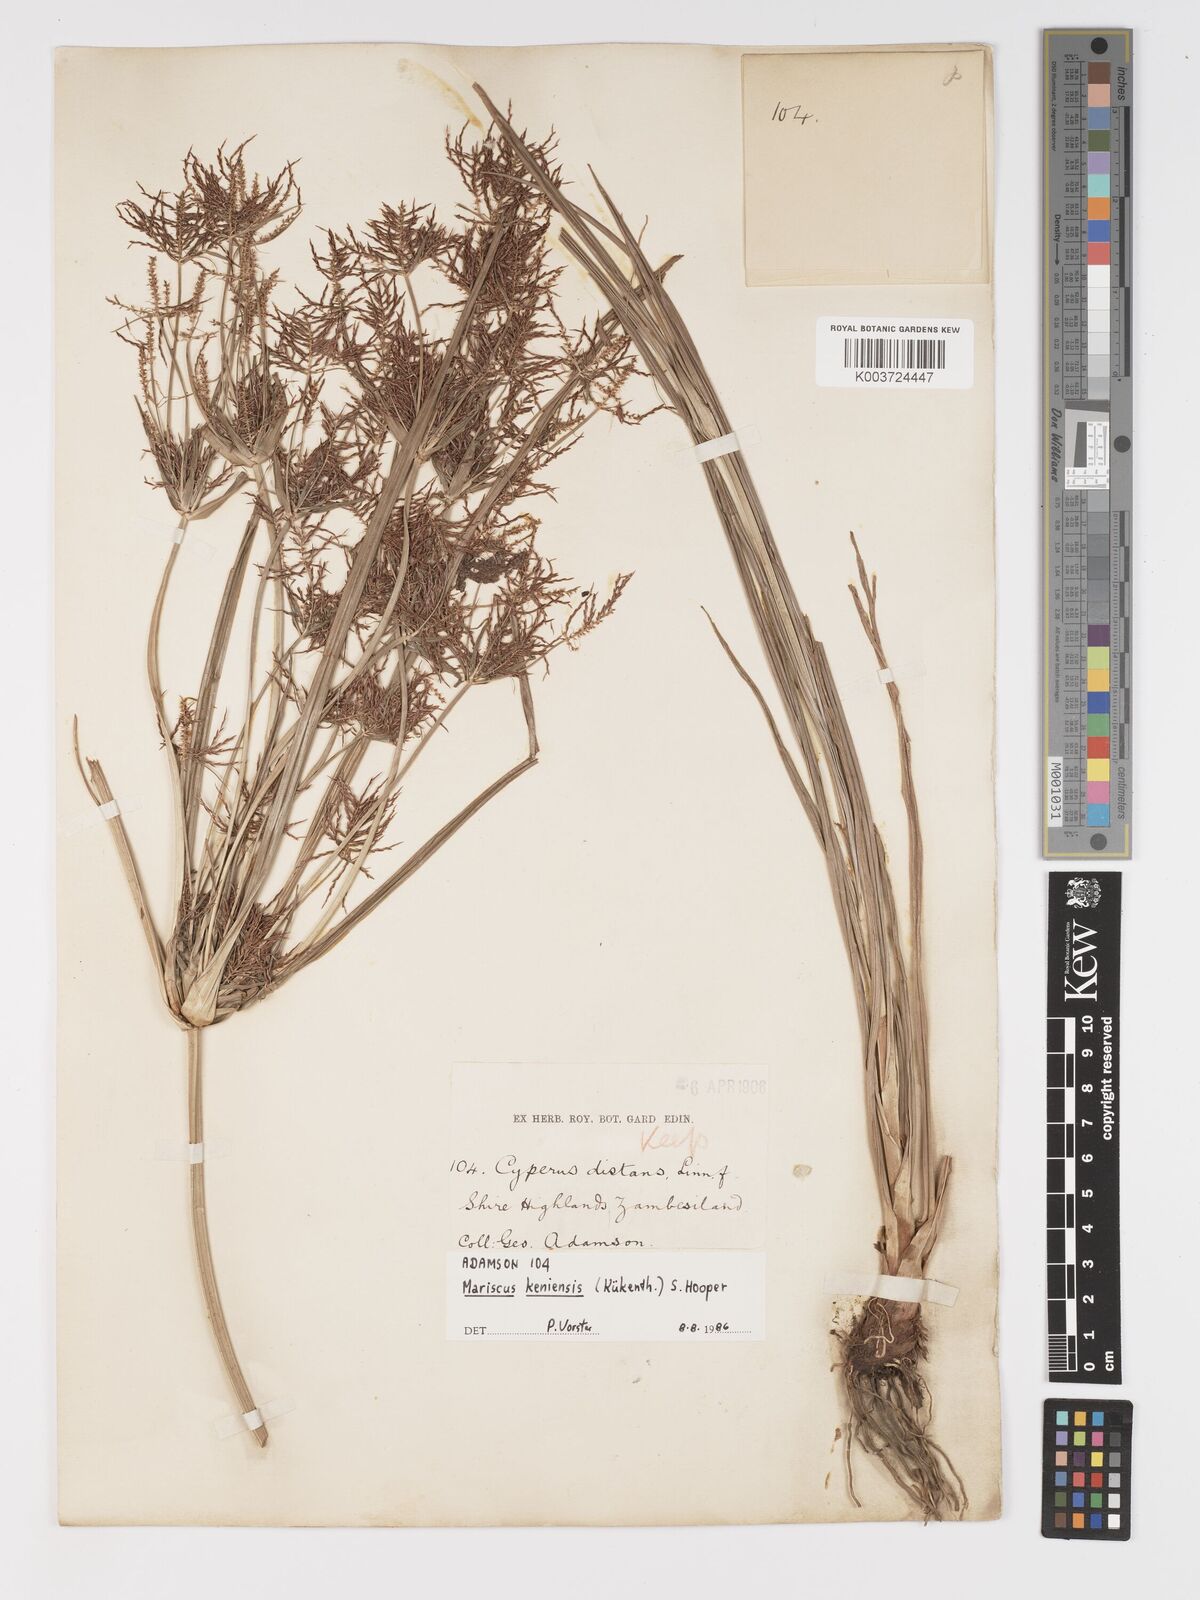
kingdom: Plantae
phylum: Tracheophyta
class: Liliopsida
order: Poales
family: Cyperaceae
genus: Cyperus
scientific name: Cyperus
